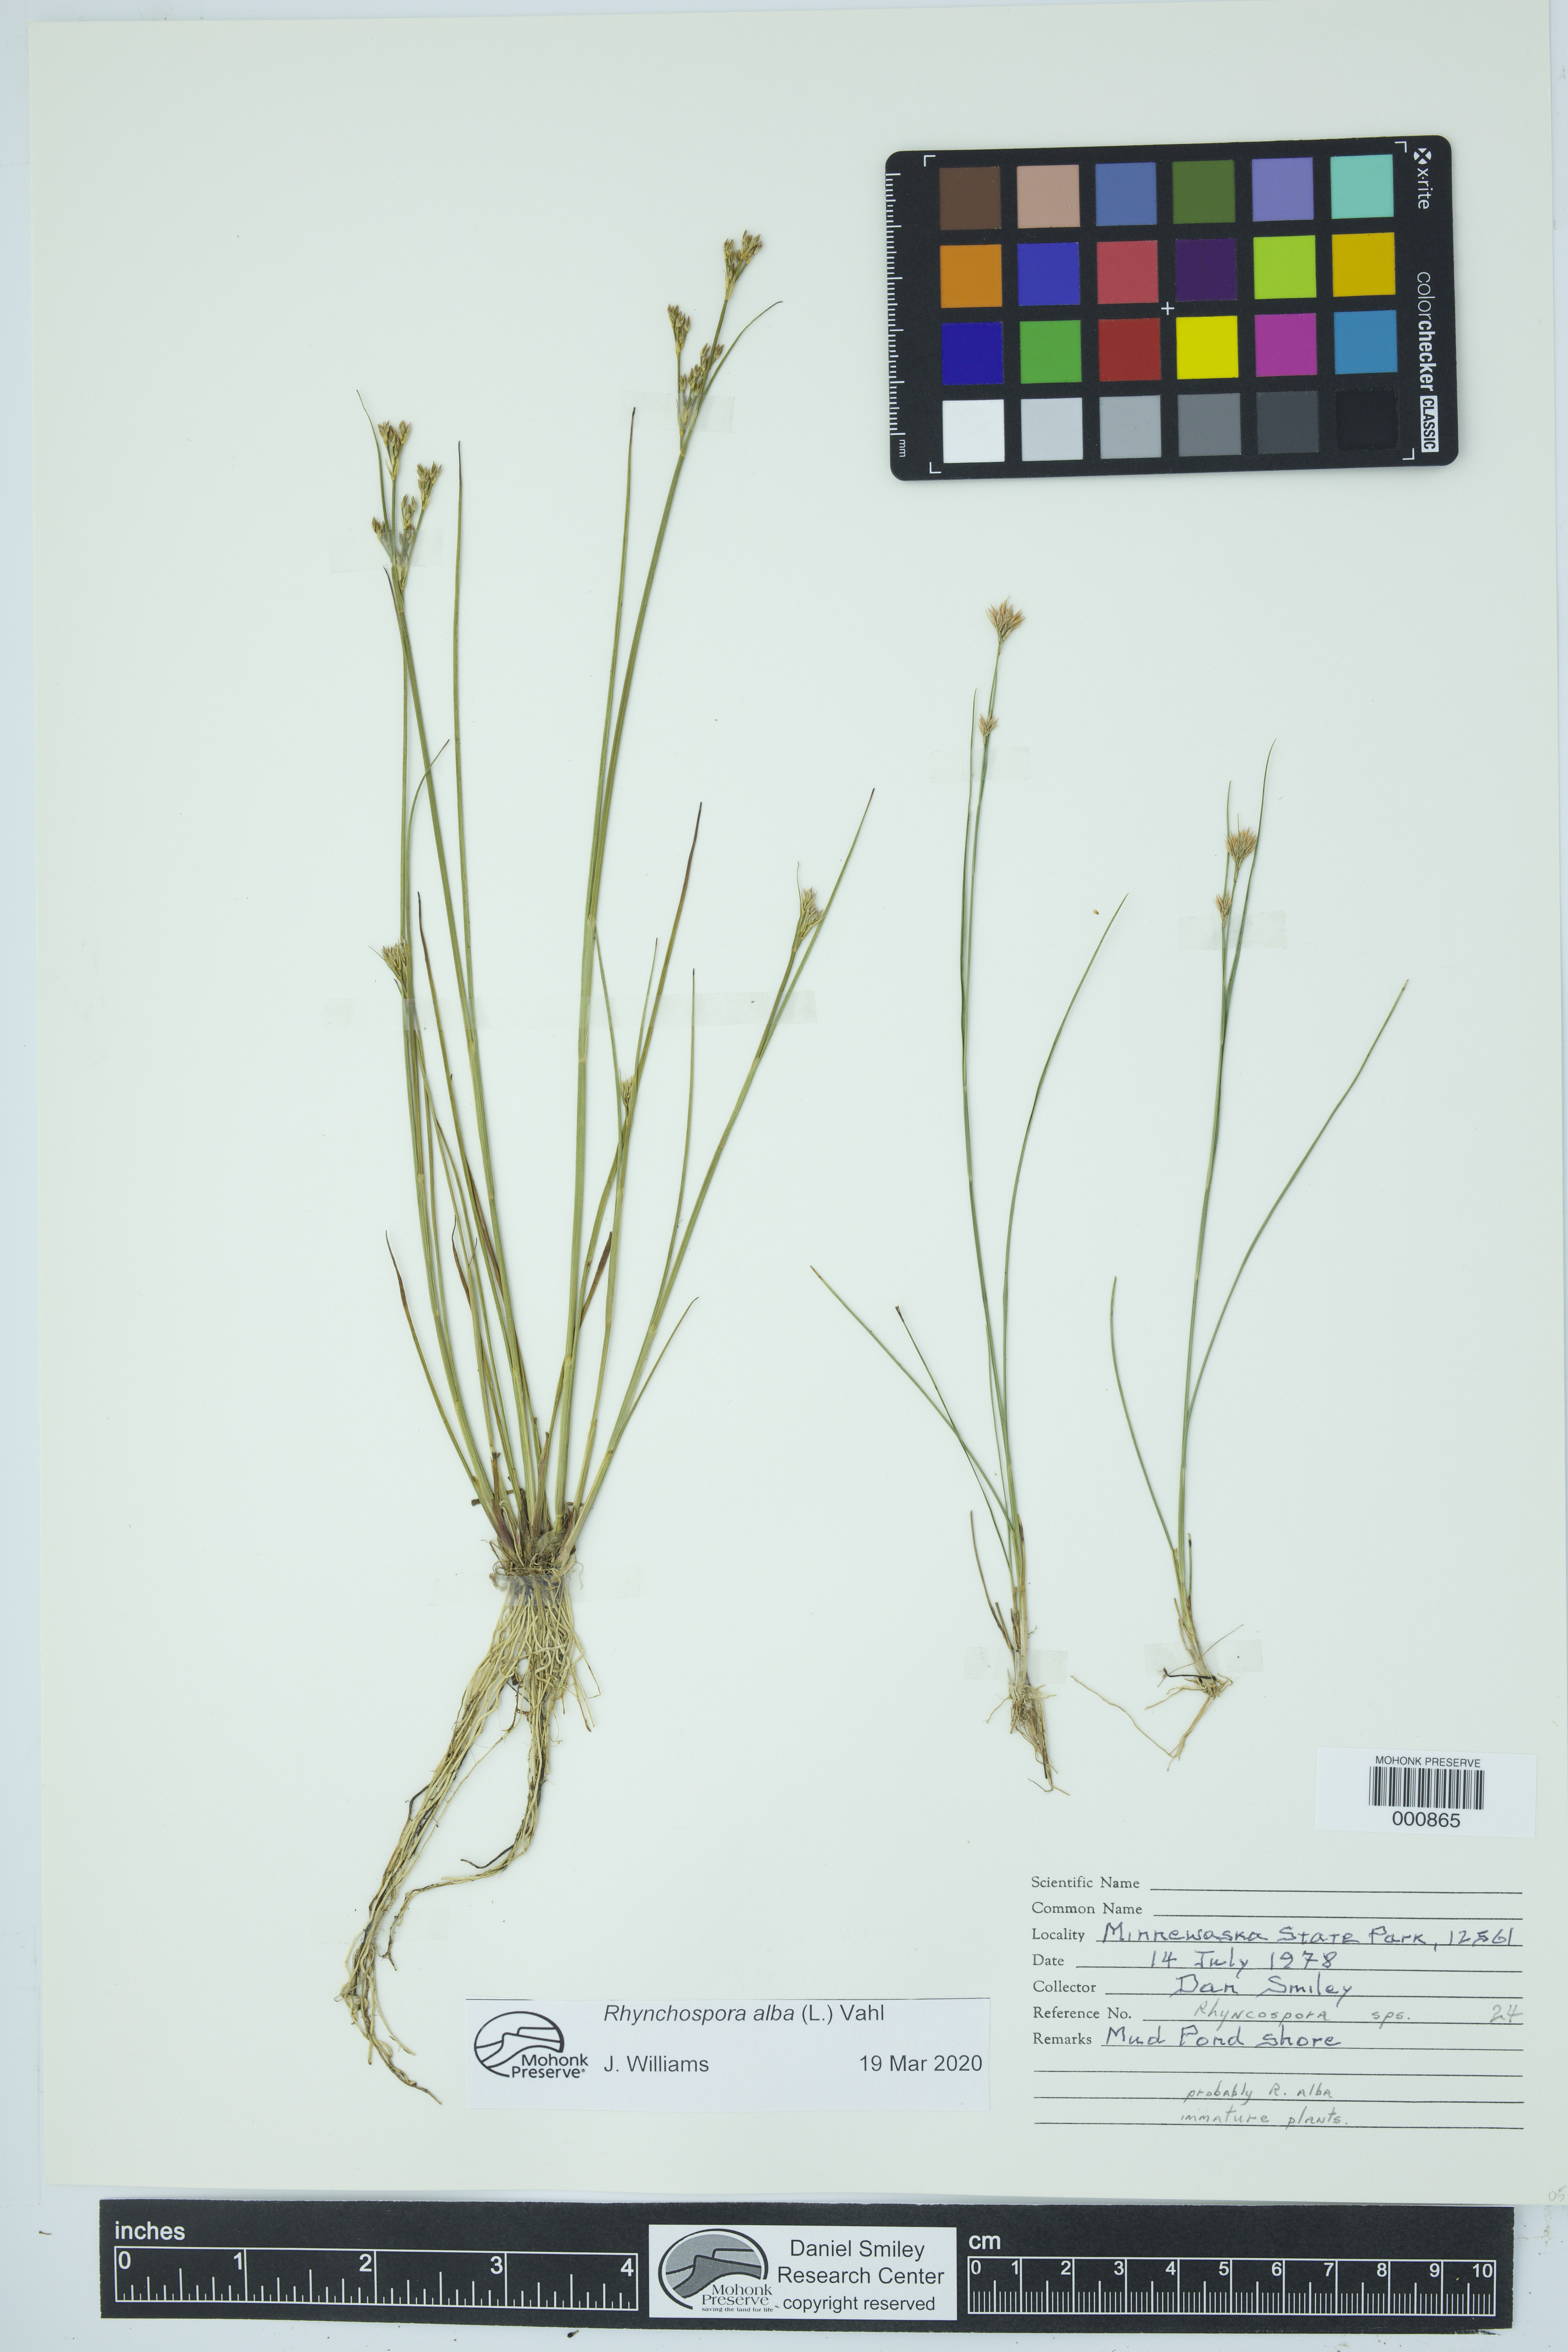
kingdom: Plantae
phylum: Tracheophyta
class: Liliopsida
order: Poales
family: Cyperaceae
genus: Rhynchospora
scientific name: Rhynchospora alba
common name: White beak-sedge
